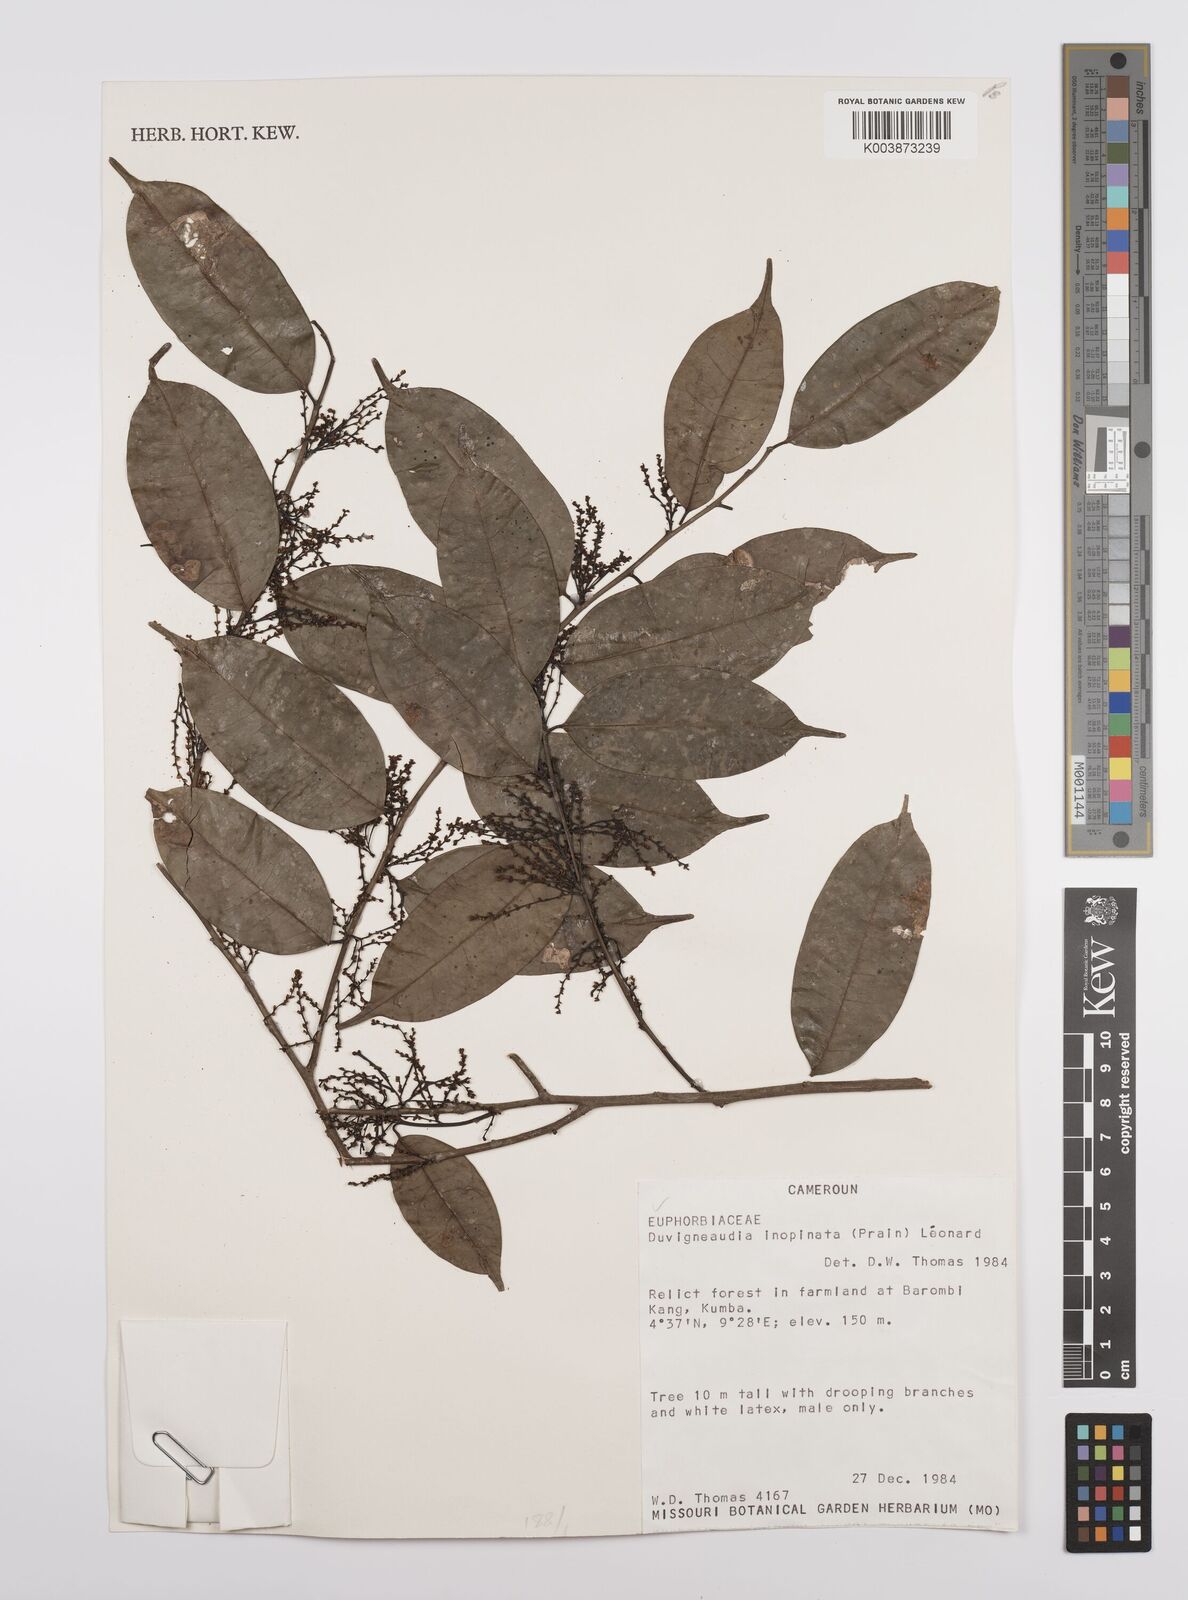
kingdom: Plantae
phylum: Tracheophyta
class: Magnoliopsida
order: Malpighiales
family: Euphorbiaceae
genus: Gymnanthes
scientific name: Gymnanthes inopinata
